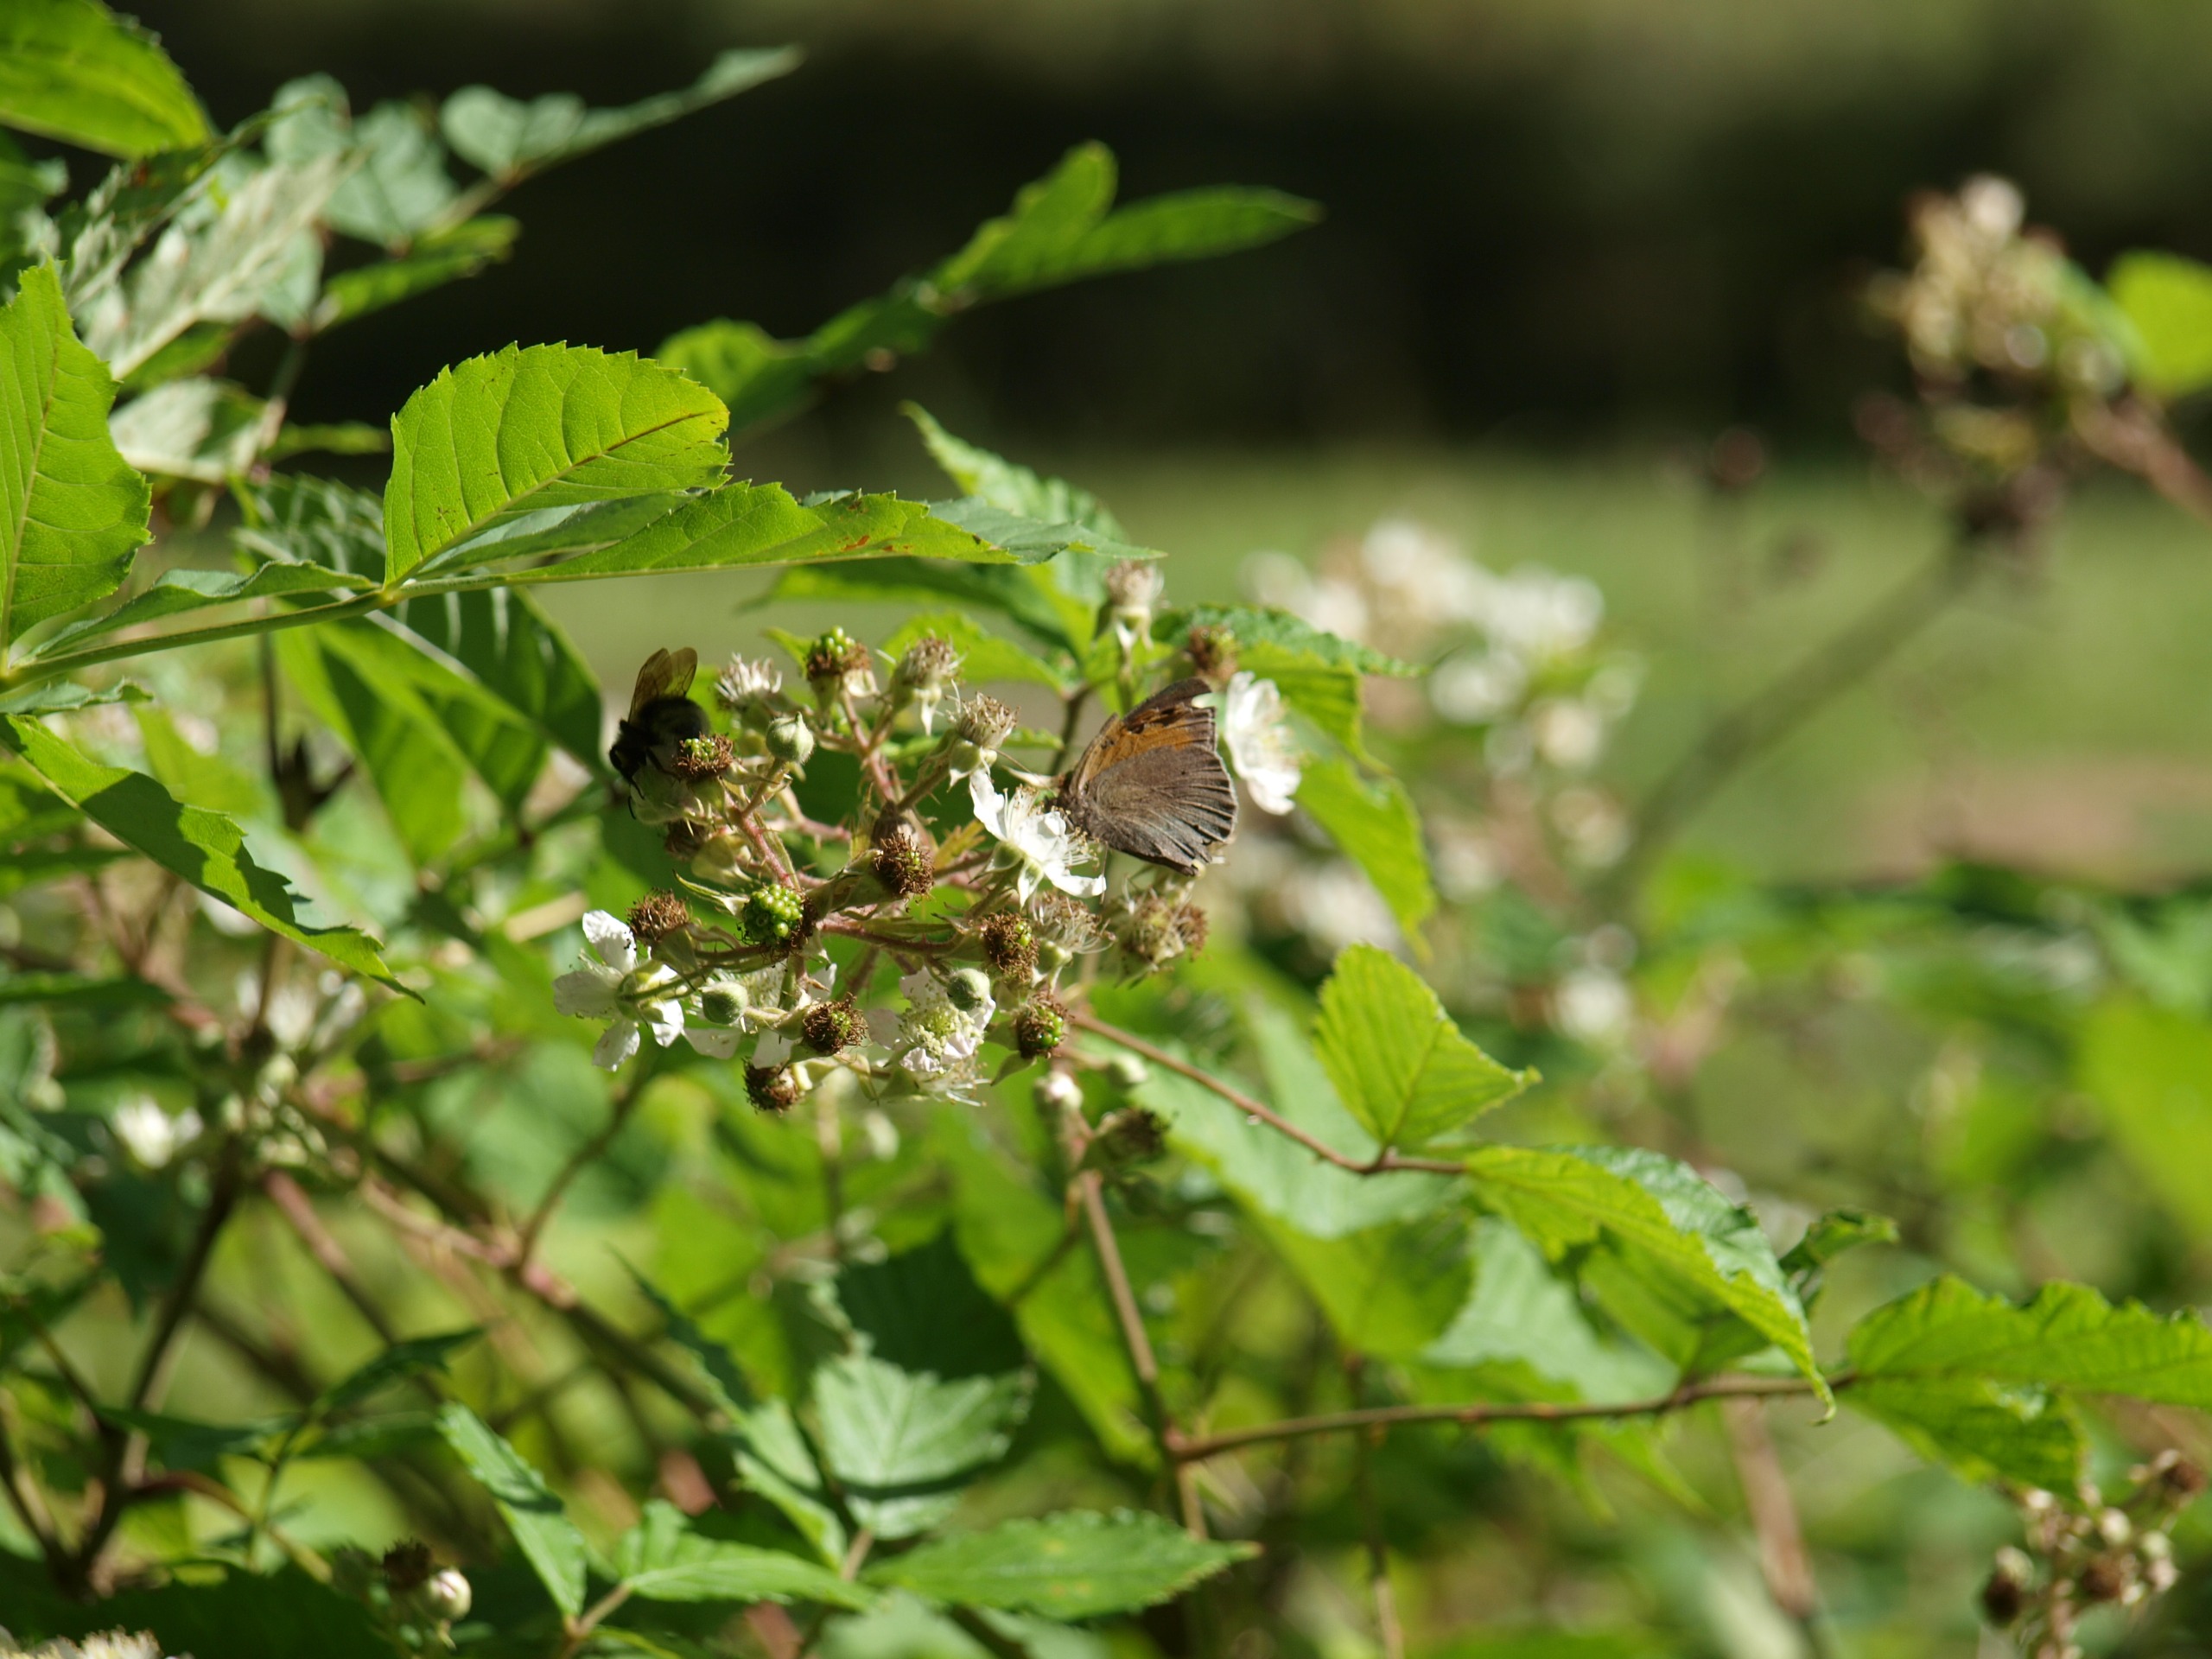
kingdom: Animalia
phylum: Arthropoda
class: Insecta
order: Lepidoptera
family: Nymphalidae
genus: Maniola
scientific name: Maniola jurtina
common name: Græsrandøje
